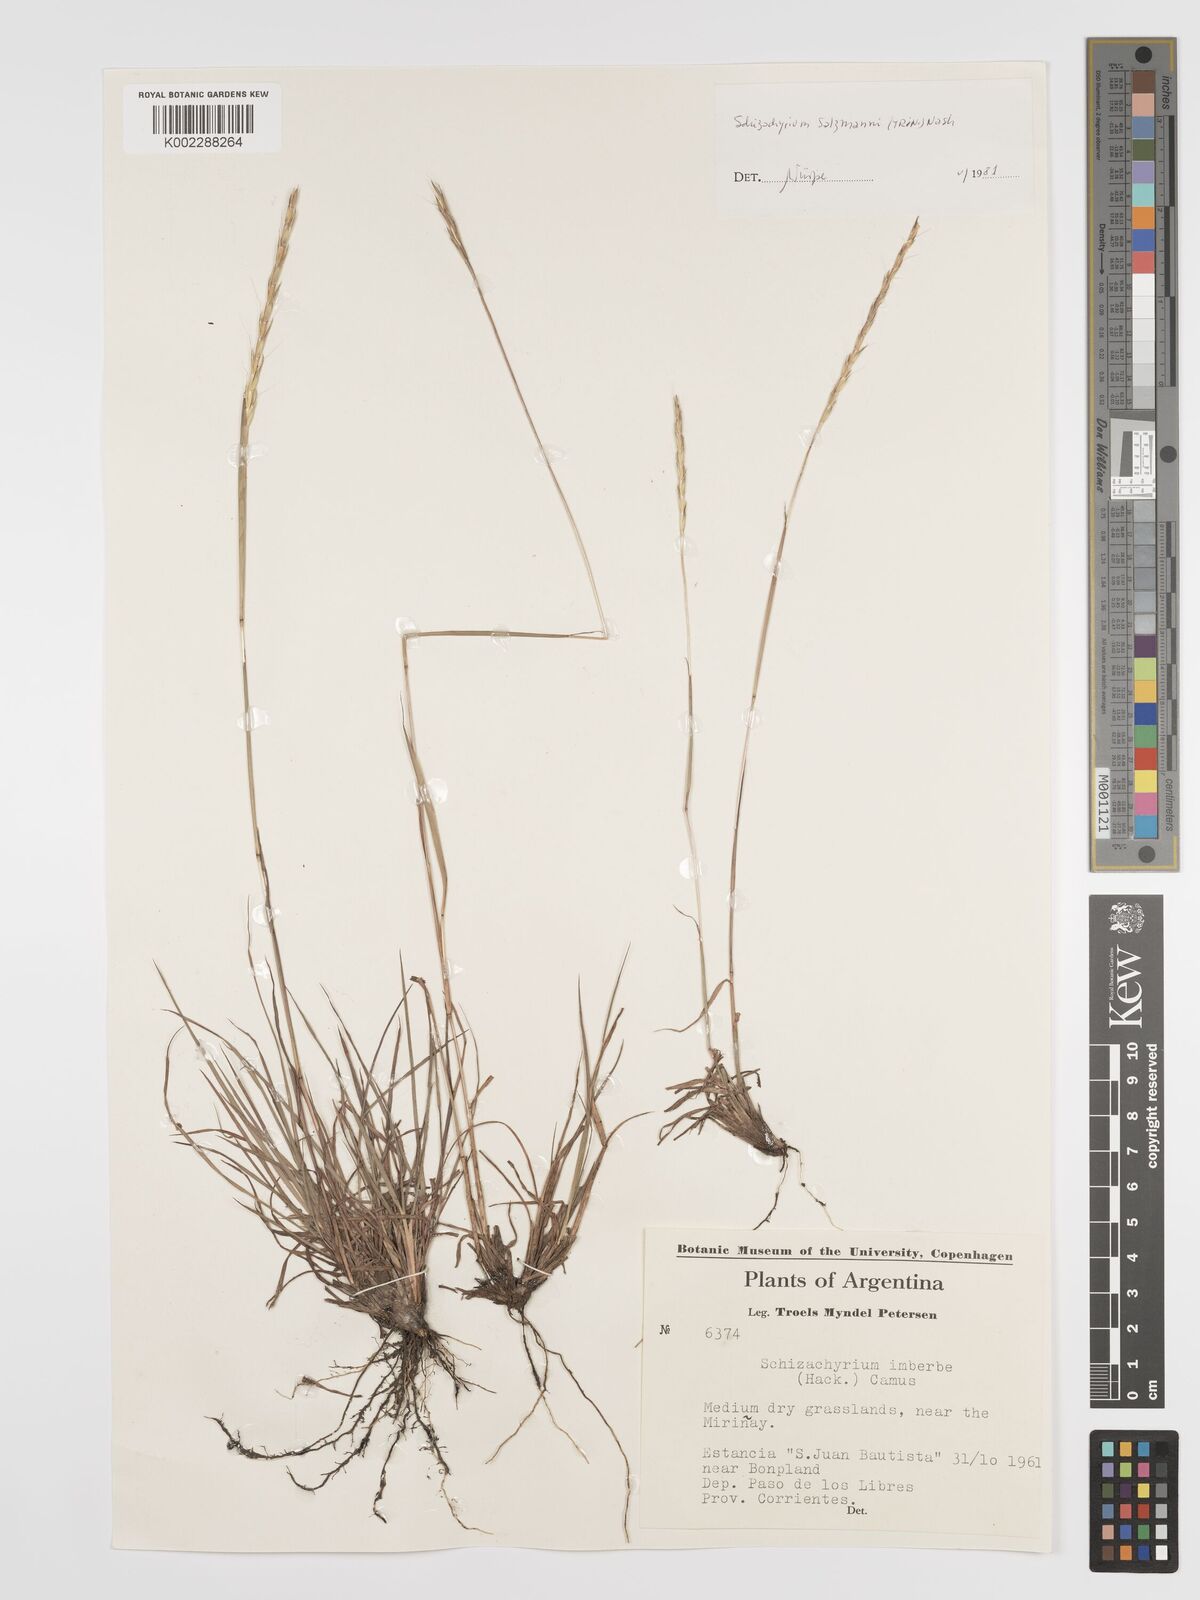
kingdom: Plantae
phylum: Tracheophyta
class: Liliopsida
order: Poales
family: Poaceae
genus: Andropogon
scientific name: Andropogon salzmannii
